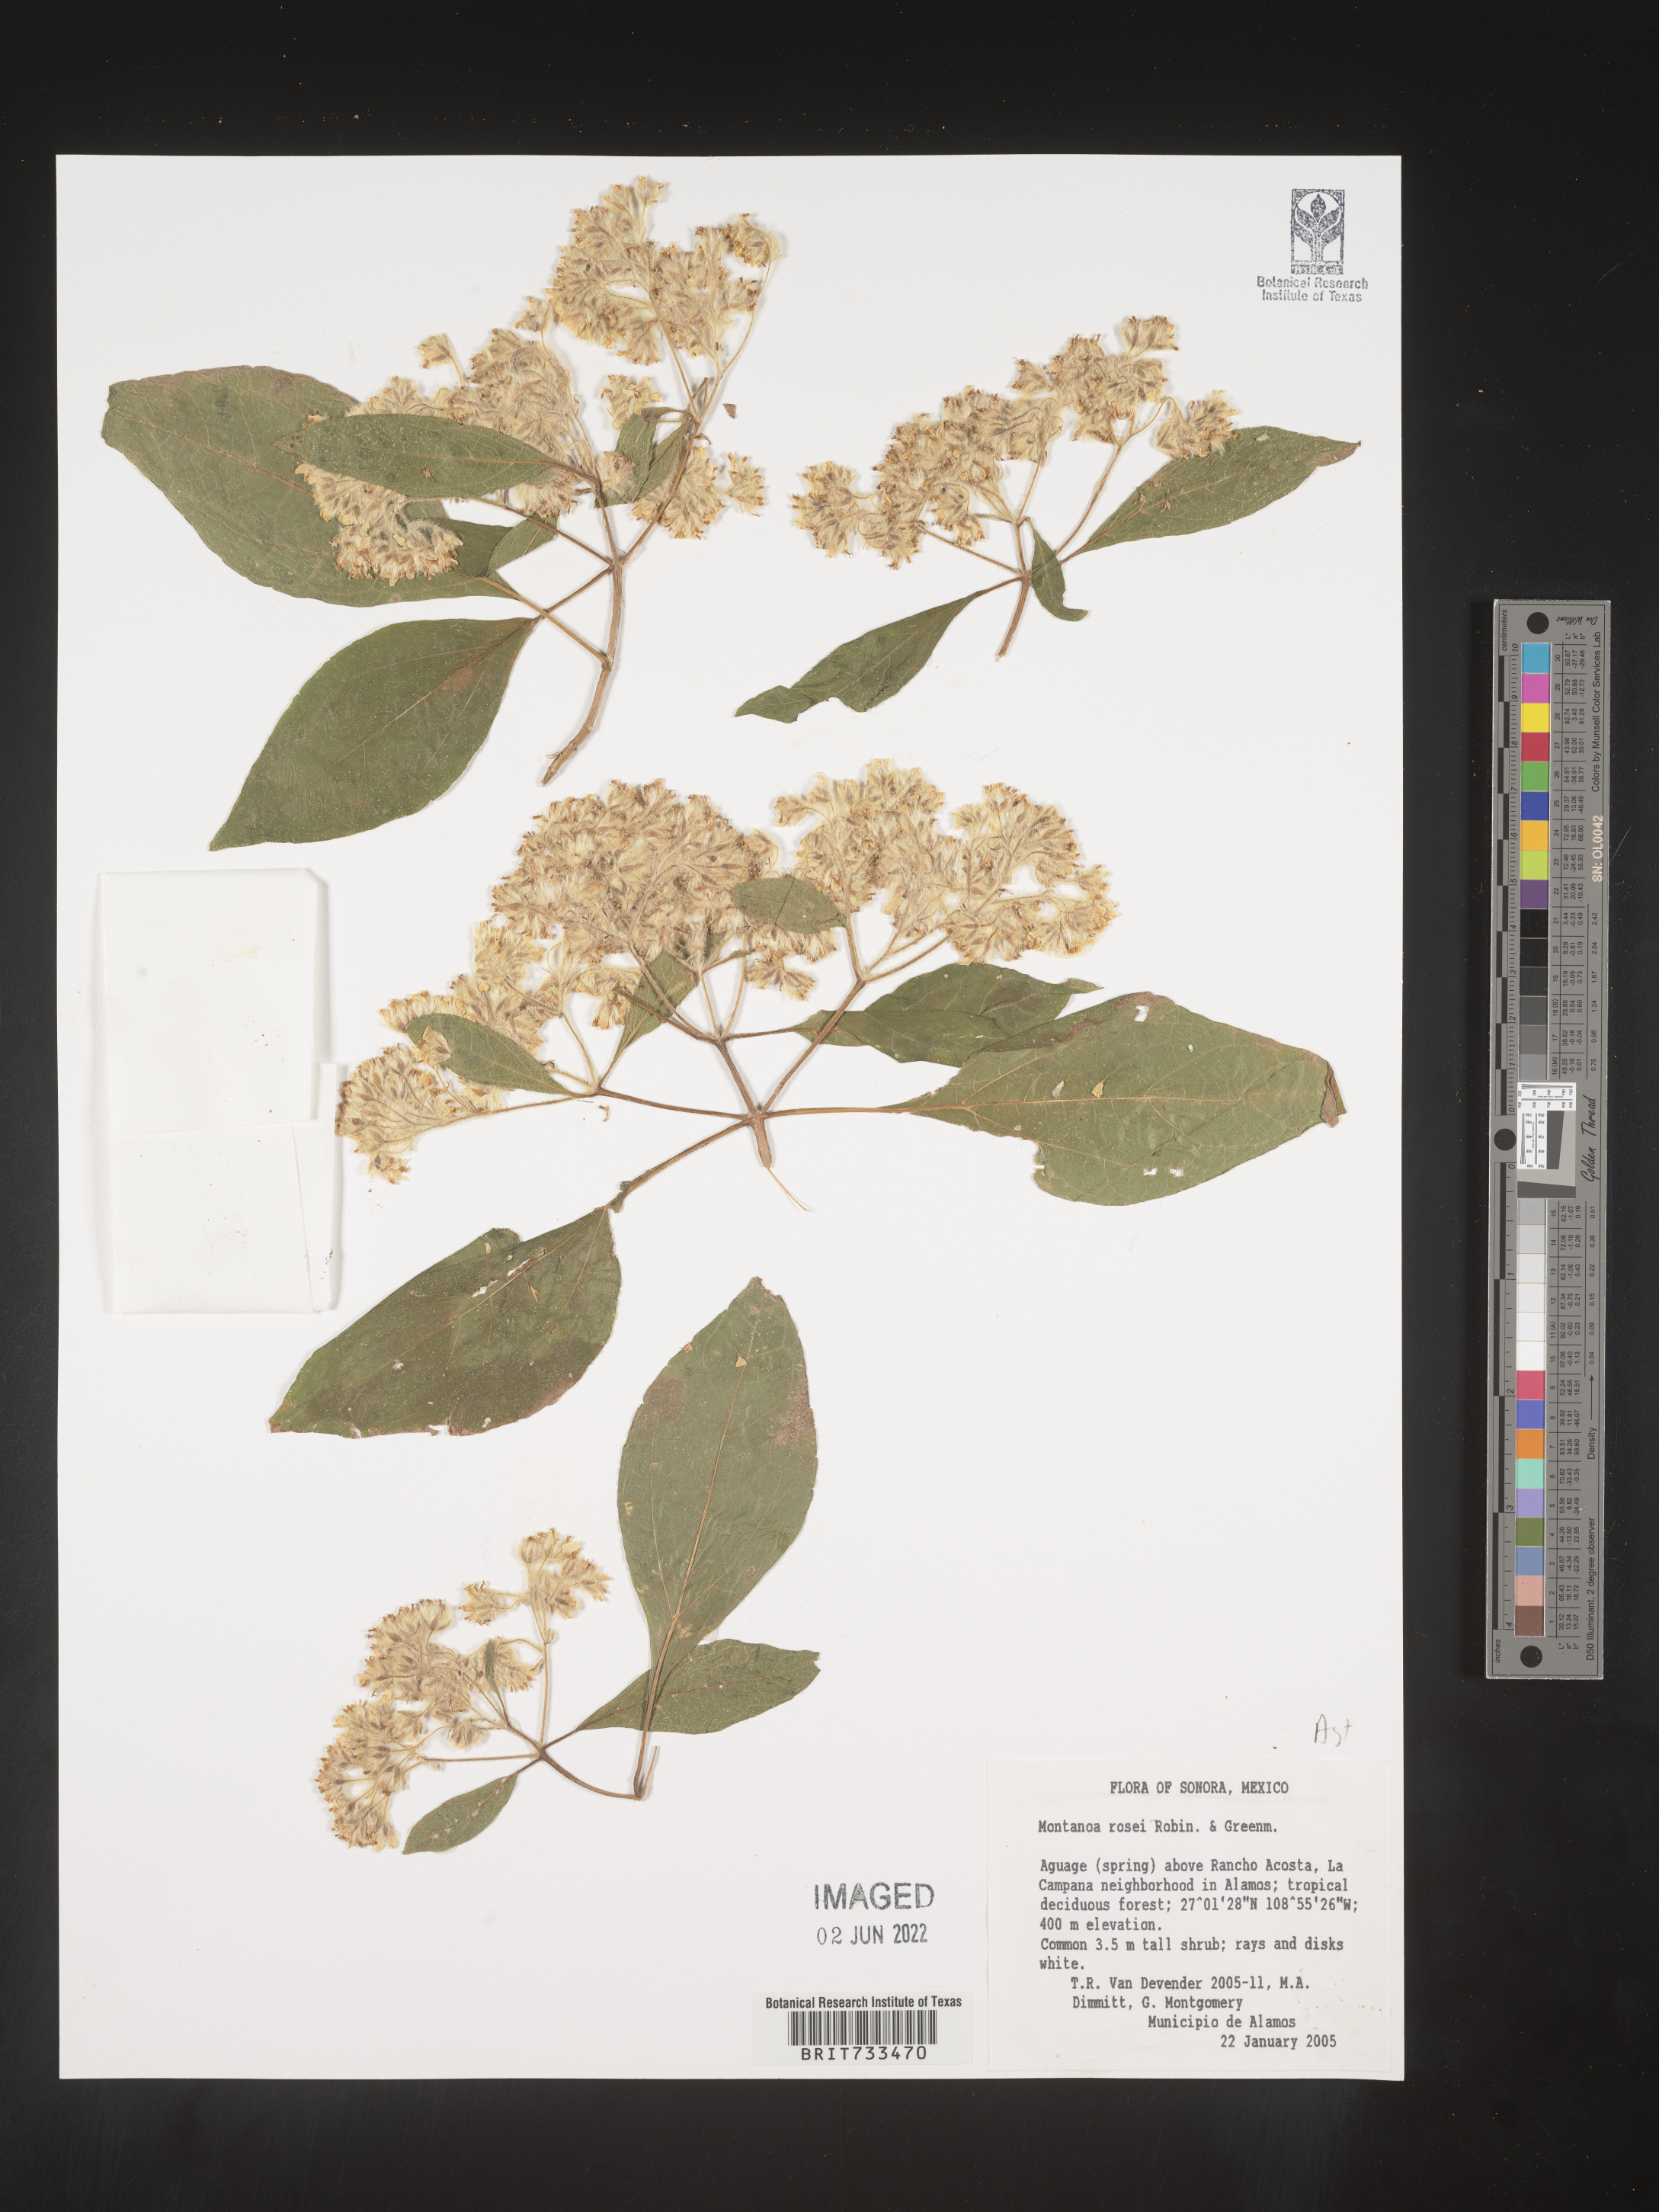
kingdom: Plantae
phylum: Tracheophyta
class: Magnoliopsida
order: Asterales
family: Asteraceae
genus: Montanoa
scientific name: Montanoa
